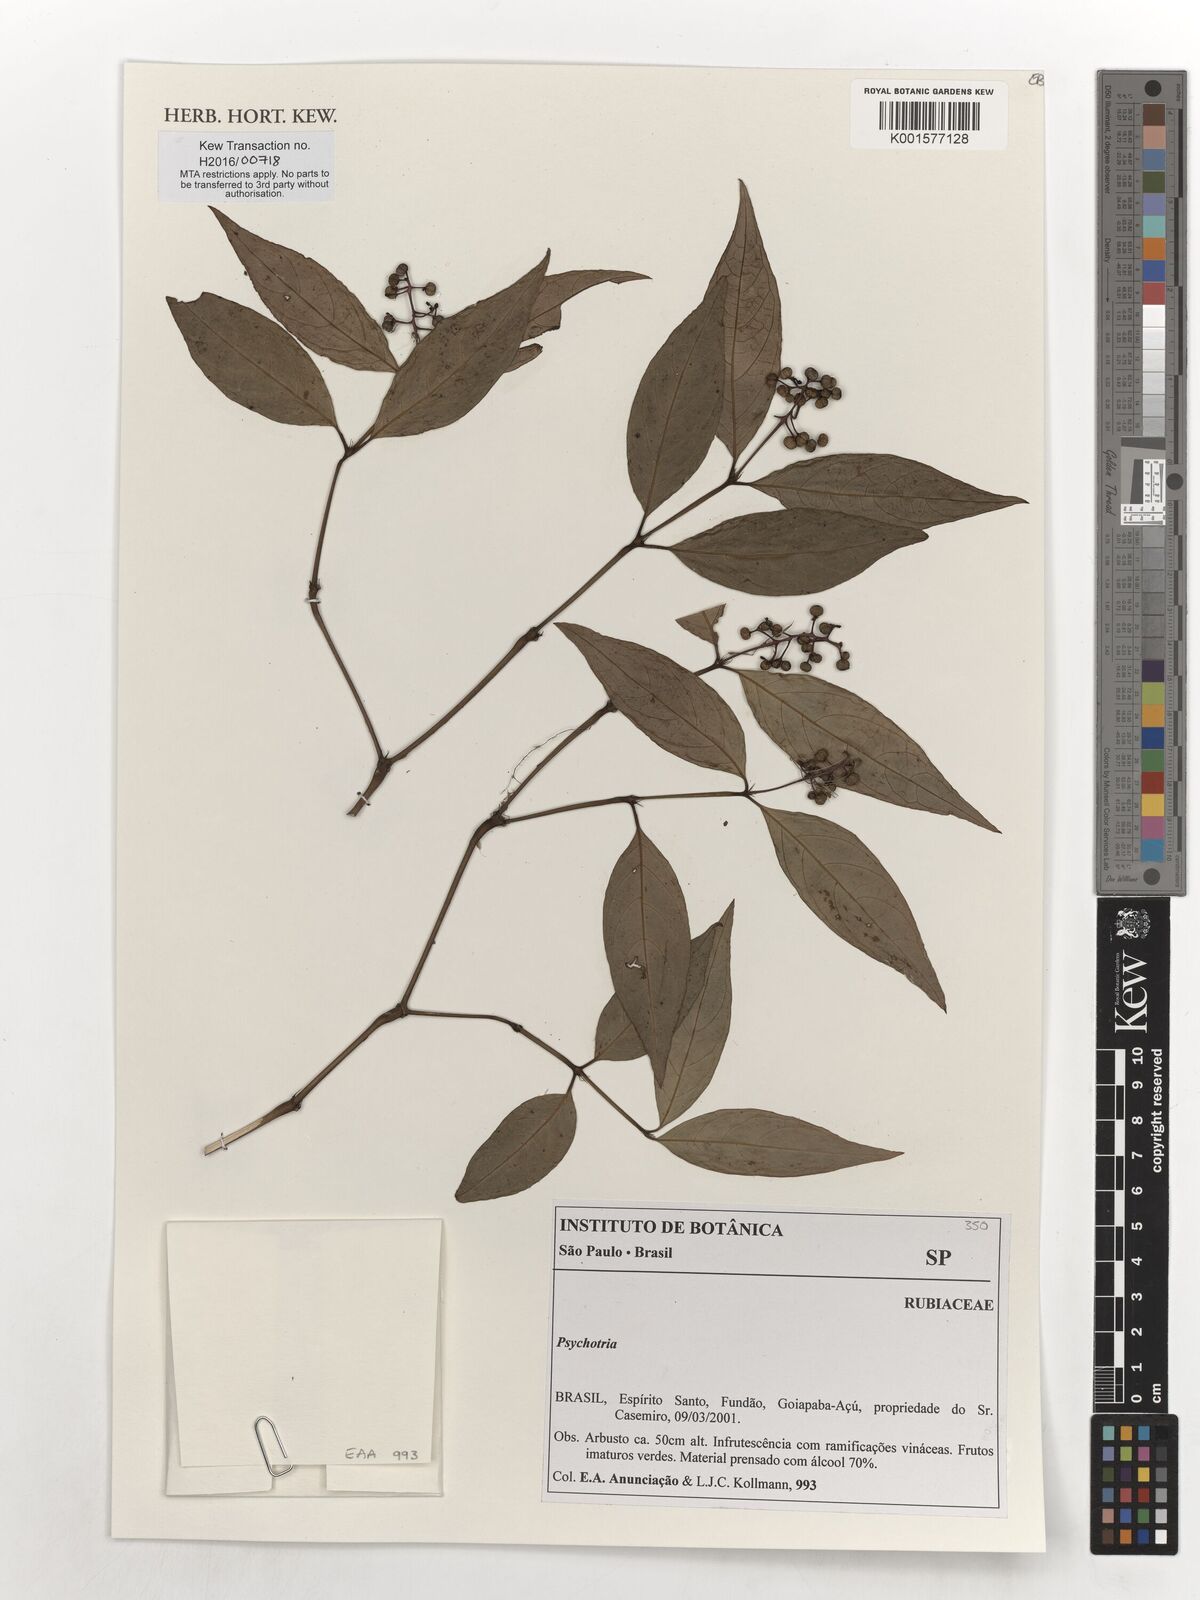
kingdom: Plantae
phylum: Tracheophyta
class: Magnoliopsida
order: Gentianales
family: Rubiaceae
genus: Psychotria
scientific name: Psychotria
